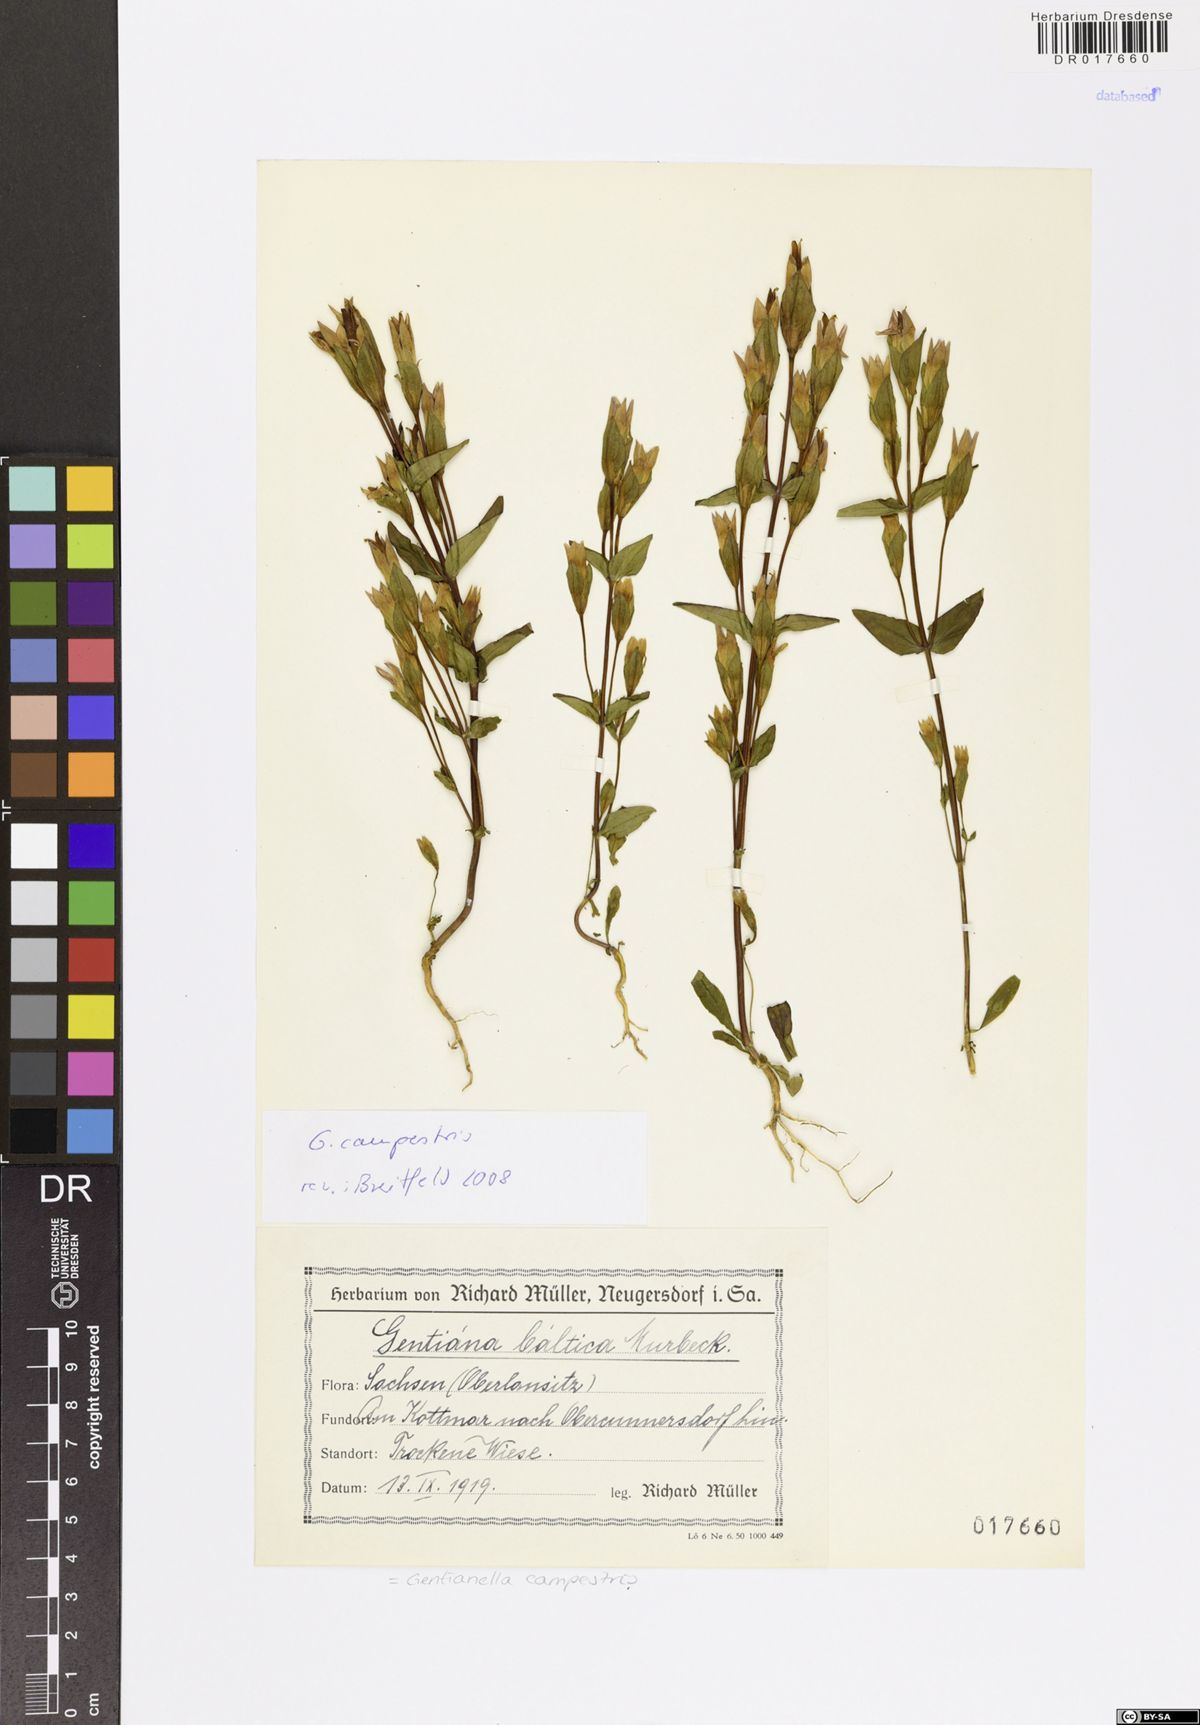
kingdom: Plantae
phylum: Tracheophyta
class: Magnoliopsida
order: Gentianales
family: Gentianaceae
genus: Gentianella
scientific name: Gentianella campestris
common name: Field gentian
